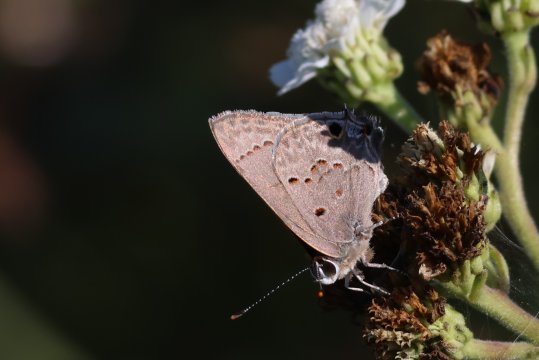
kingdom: Animalia
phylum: Arthropoda
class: Insecta
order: Lepidoptera
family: Lycaenidae
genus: Callicista
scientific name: Callicista columella
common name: Mallow Scrub-Hairstreak
